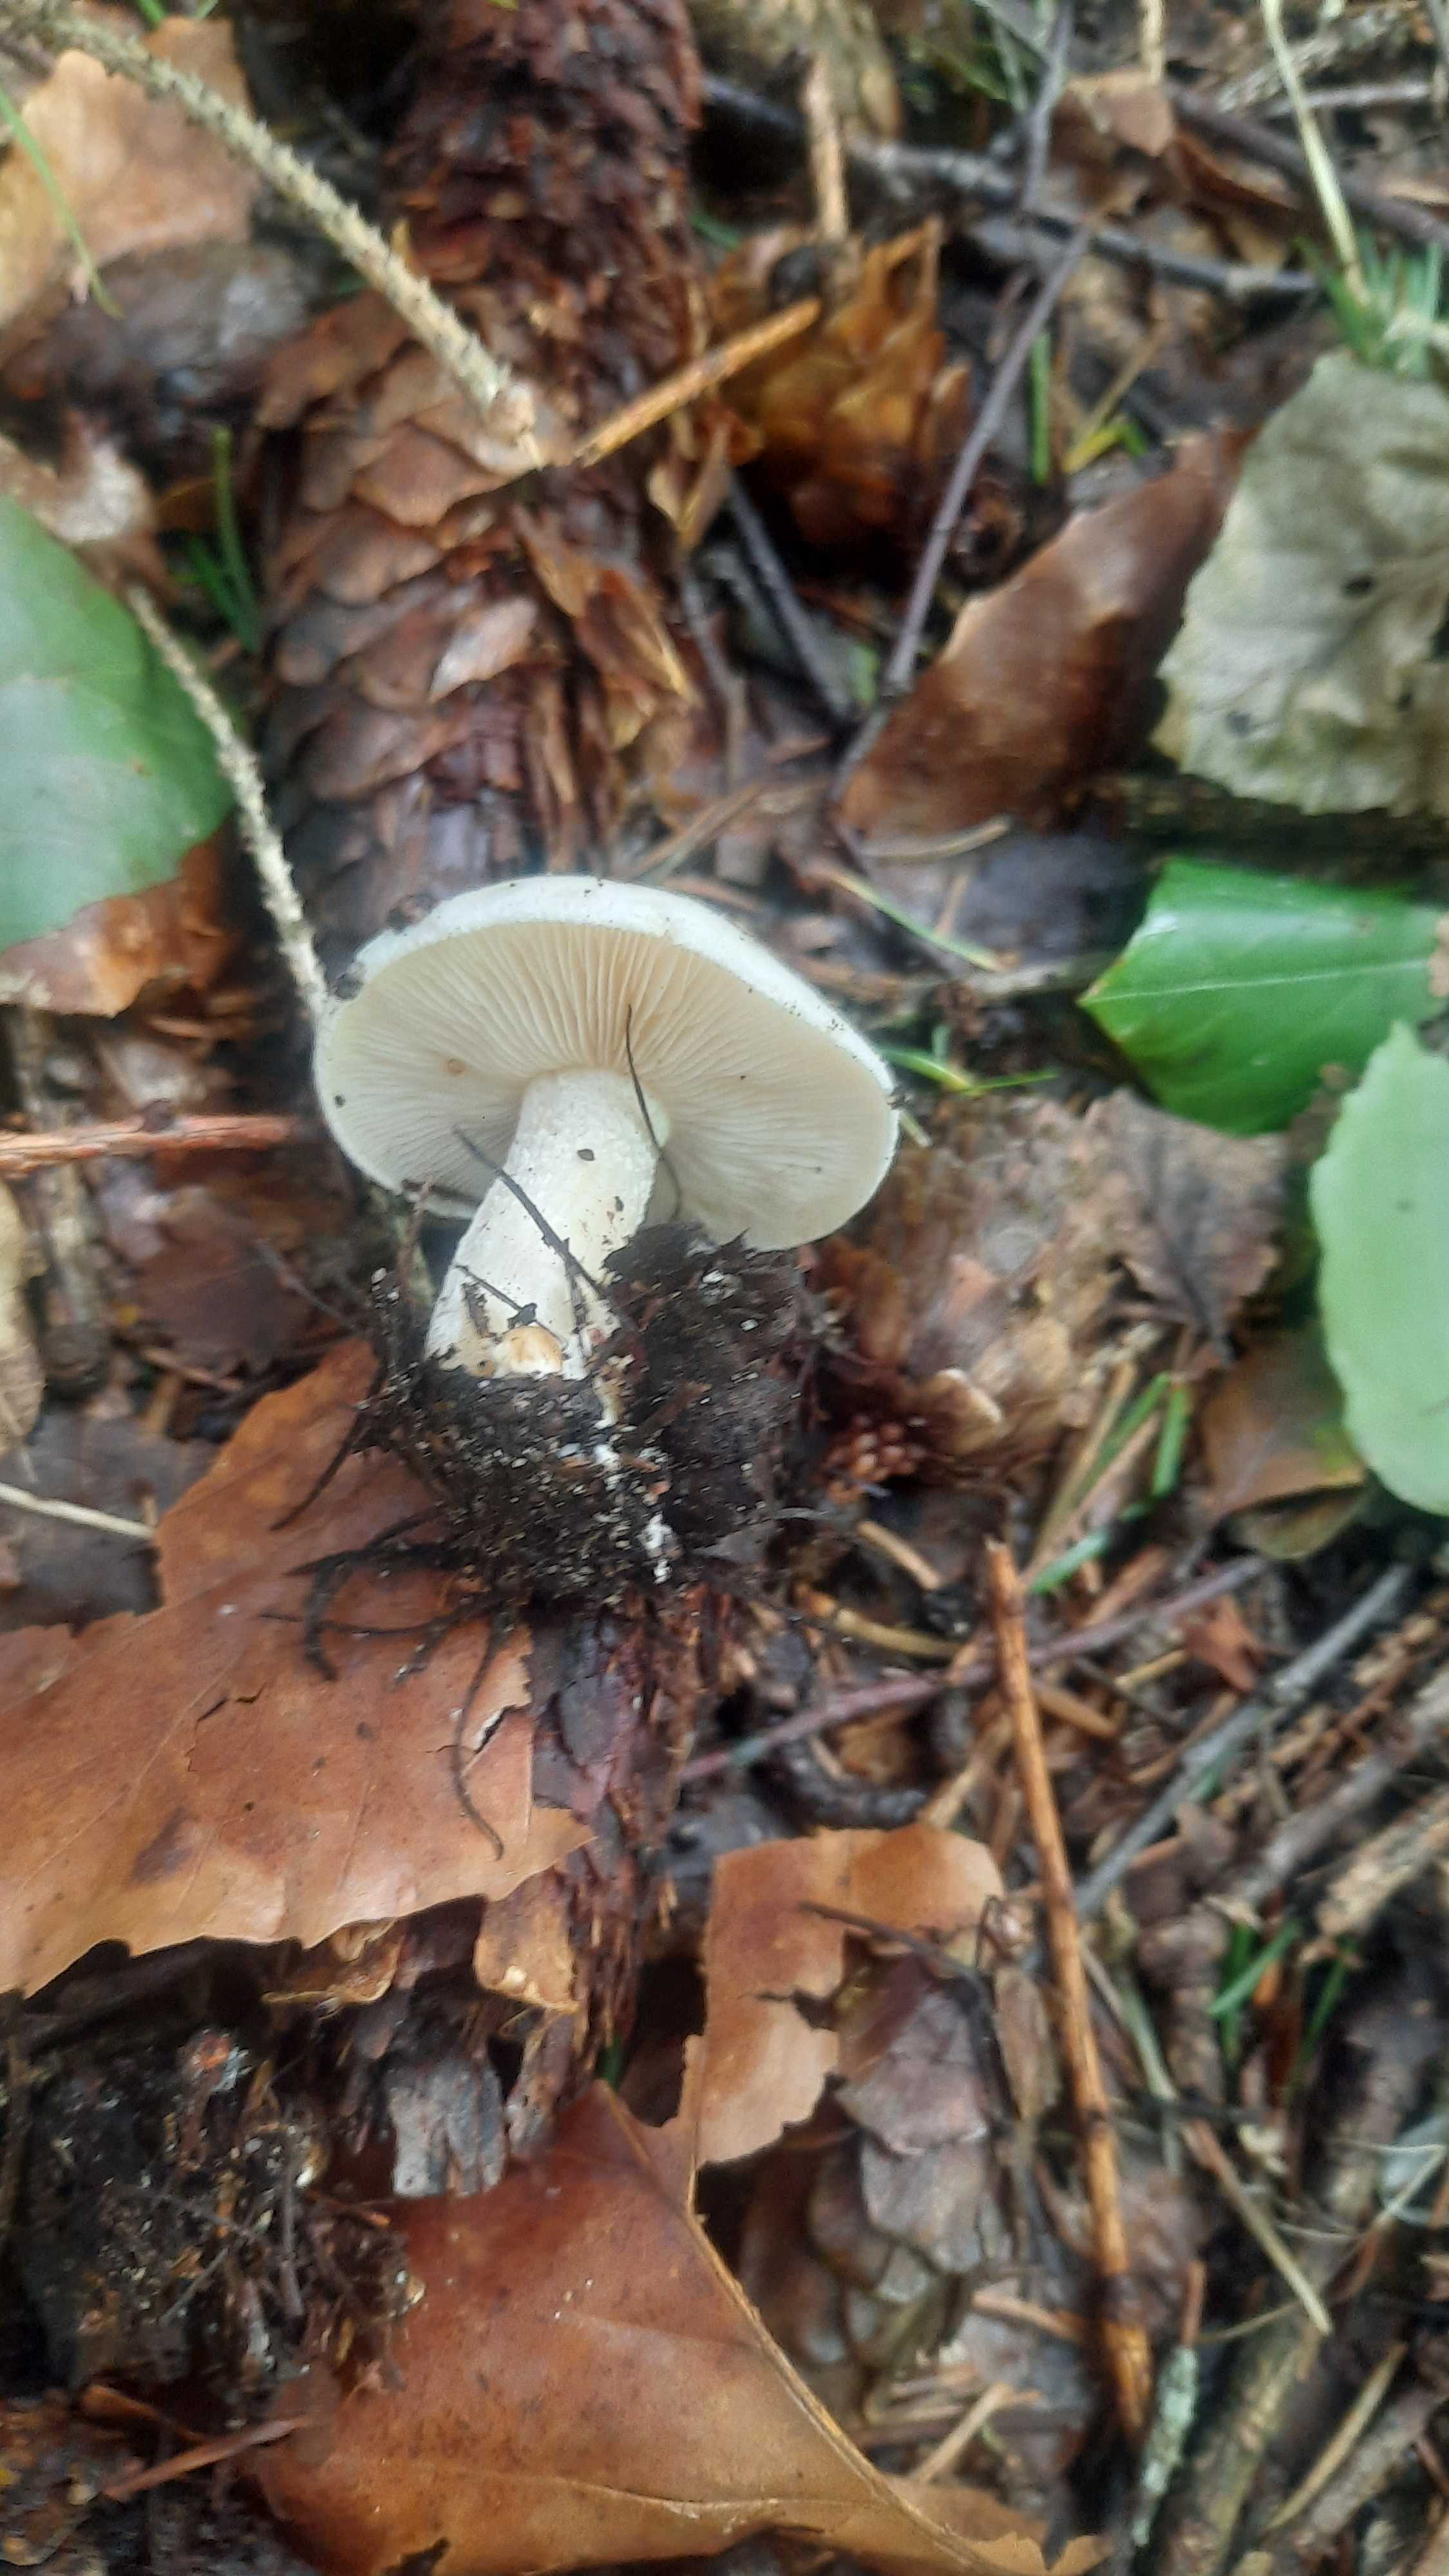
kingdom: Fungi
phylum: Basidiomycota
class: Agaricomycetes
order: Agaricales
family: Hymenogastraceae
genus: Hebeloma
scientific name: Hebeloma
